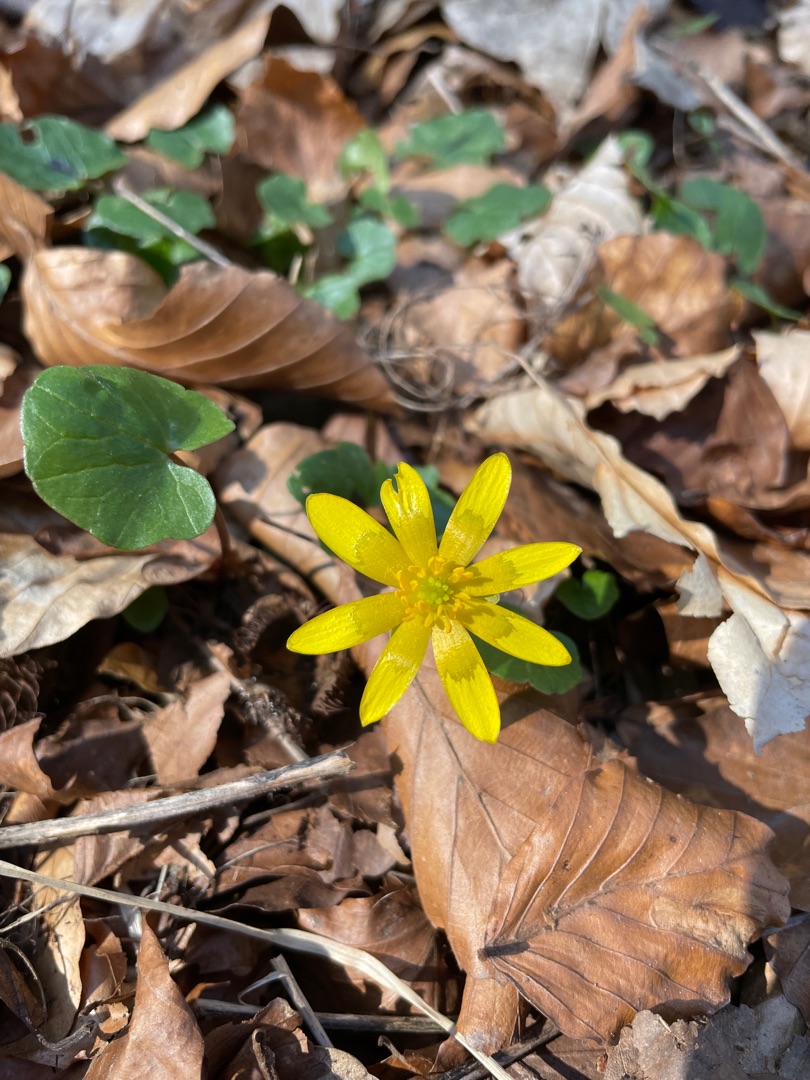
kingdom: Plantae
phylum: Tracheophyta
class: Magnoliopsida
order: Ranunculales
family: Ranunculaceae
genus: Ficaria
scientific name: Ficaria verna
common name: Vorterod
